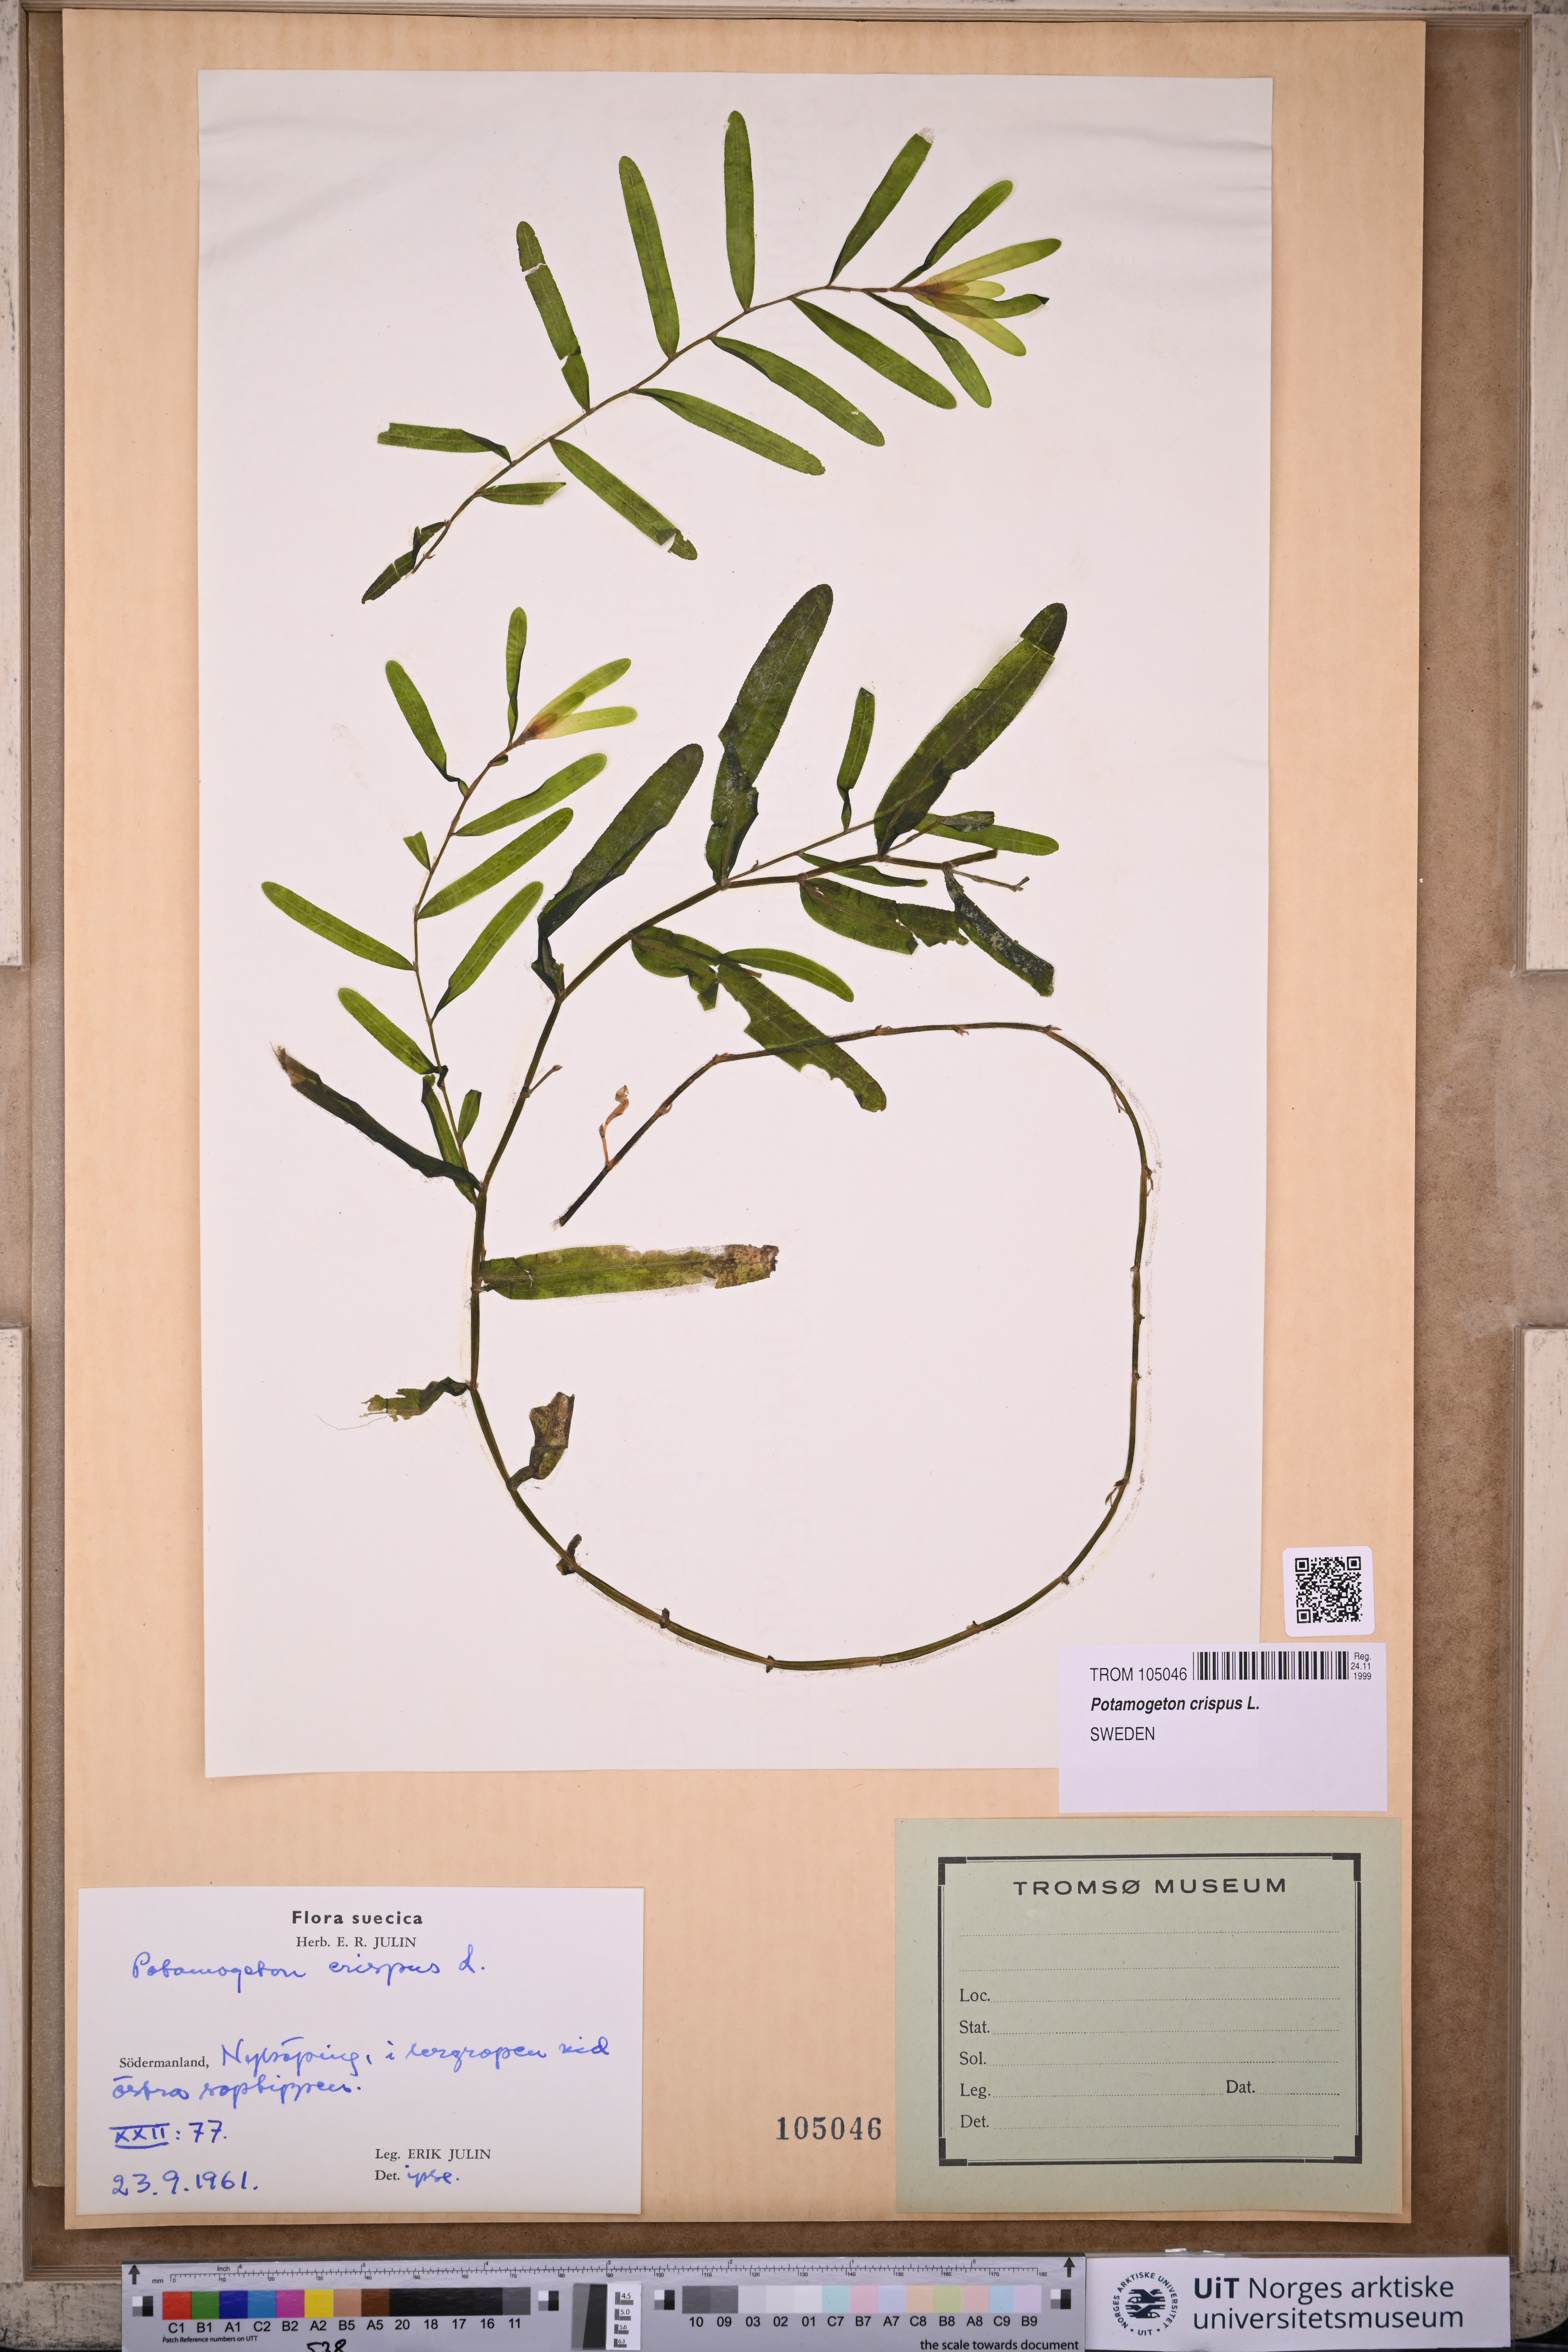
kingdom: Plantae
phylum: Tracheophyta
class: Liliopsida
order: Alismatales
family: Potamogetonaceae
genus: Potamogeton
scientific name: Potamogeton crispus
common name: Curled pondweed
